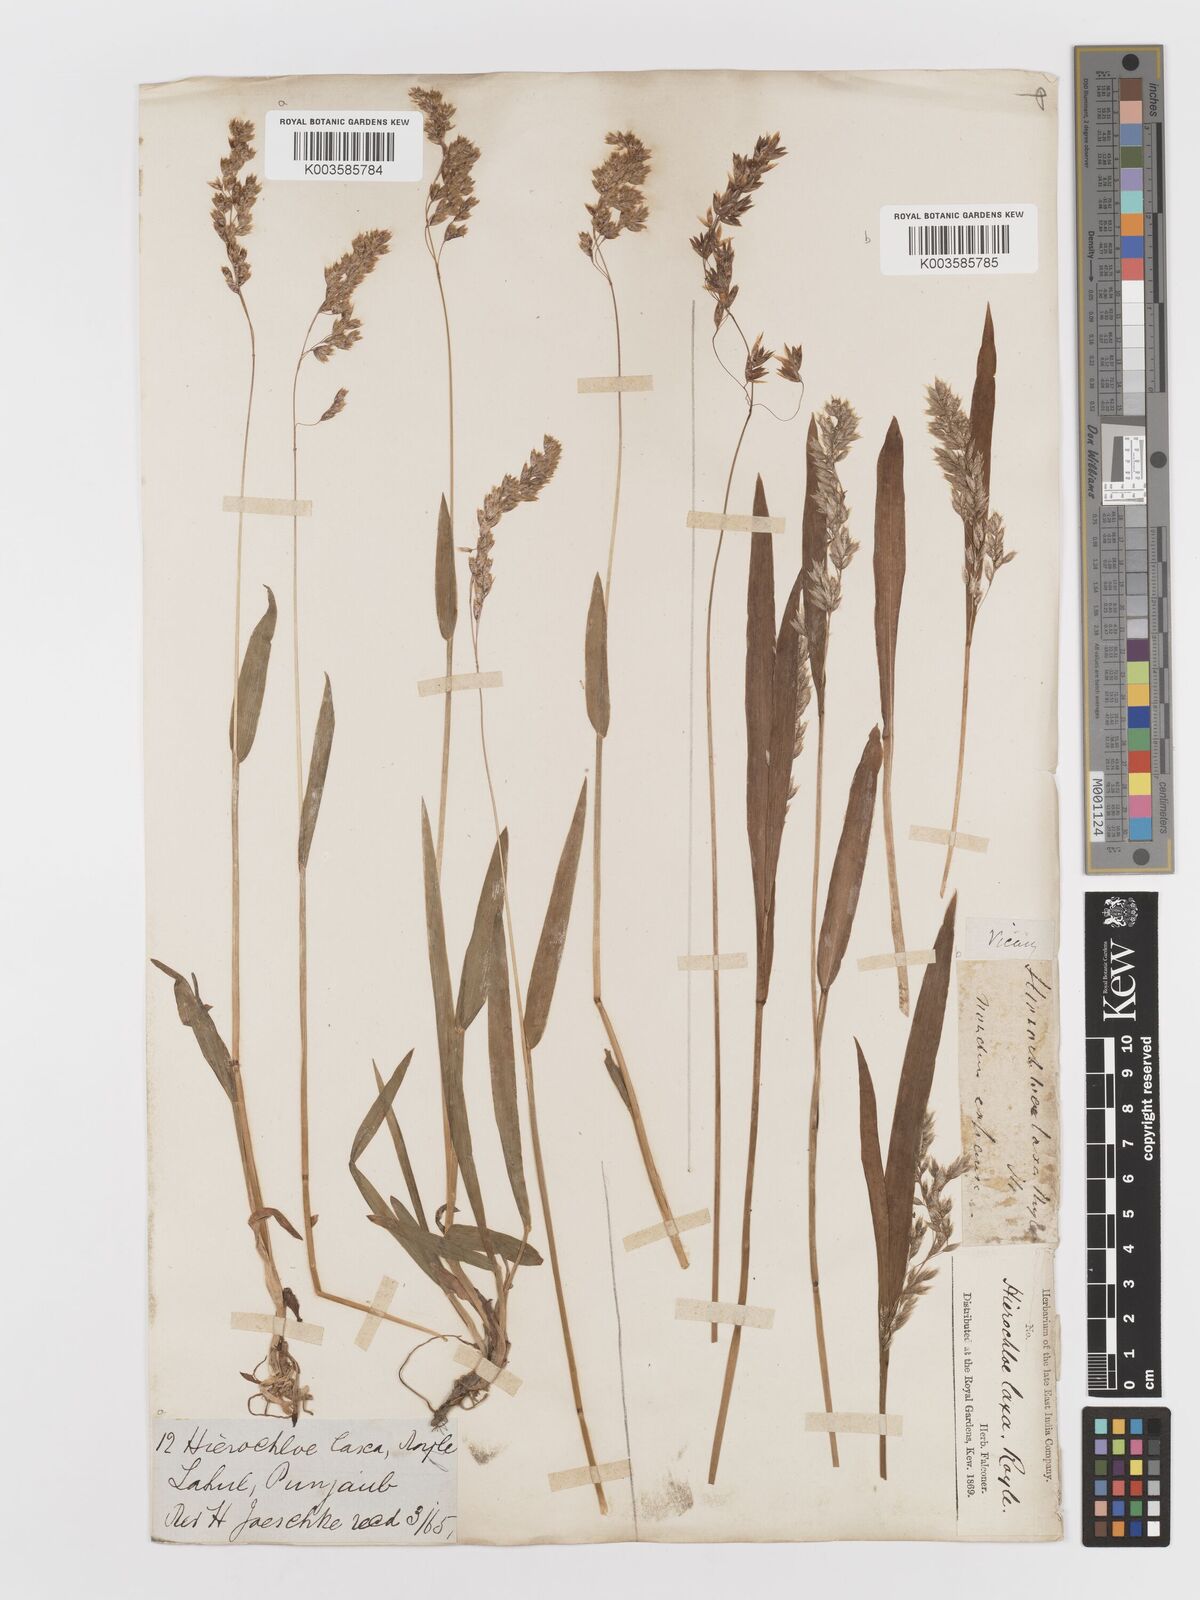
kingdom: Plantae
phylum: Tracheophyta
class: Liliopsida
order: Poales
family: Poaceae
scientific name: Poaceae
